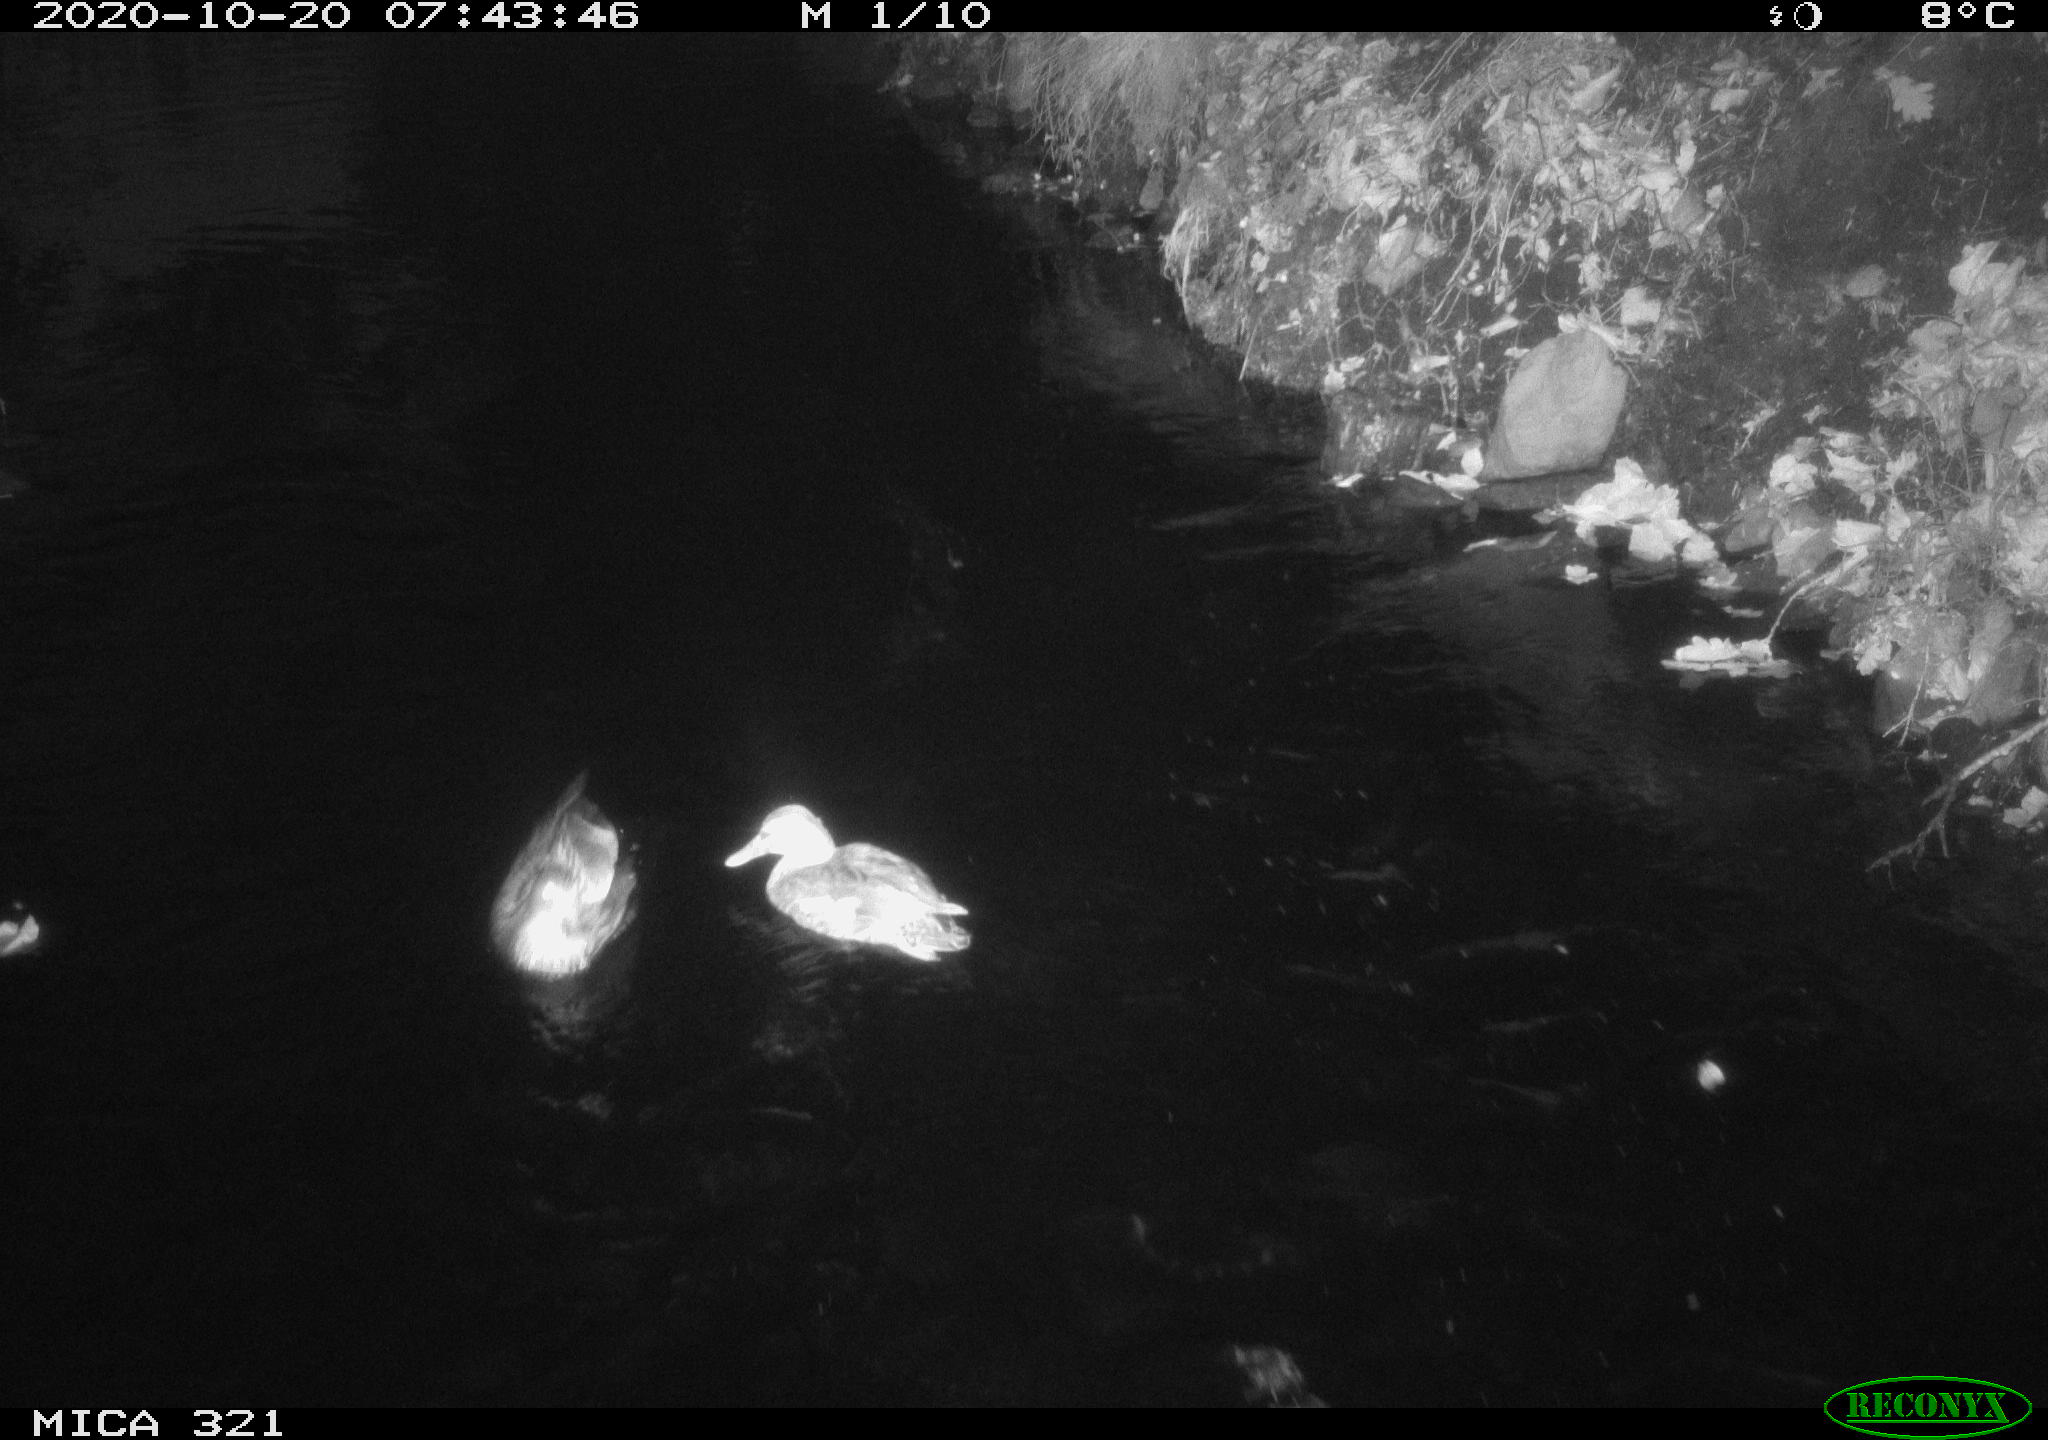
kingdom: Animalia
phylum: Chordata
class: Aves
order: Anseriformes
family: Anatidae
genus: Anas
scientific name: Anas platyrhynchos
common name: Mallard
